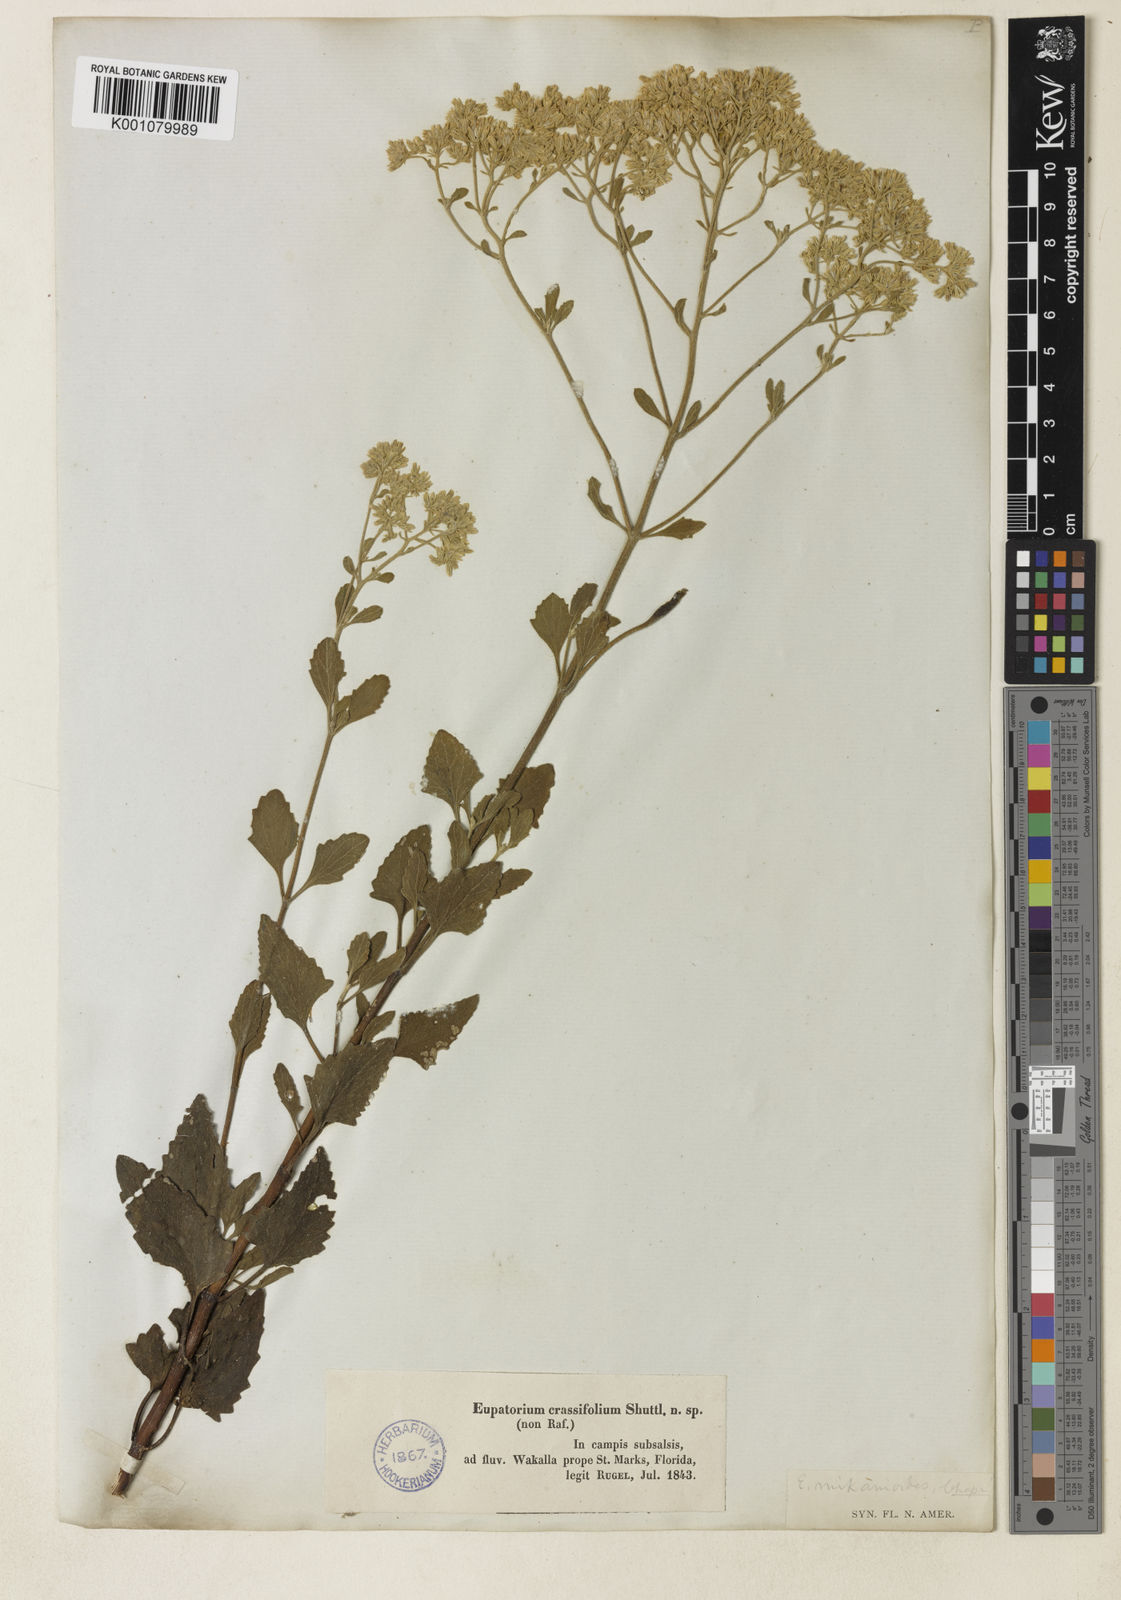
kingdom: Plantae
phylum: Tracheophyta
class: Magnoliopsida
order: Asterales
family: Asteraceae
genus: Eupatorium
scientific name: Eupatorium mikanioides
